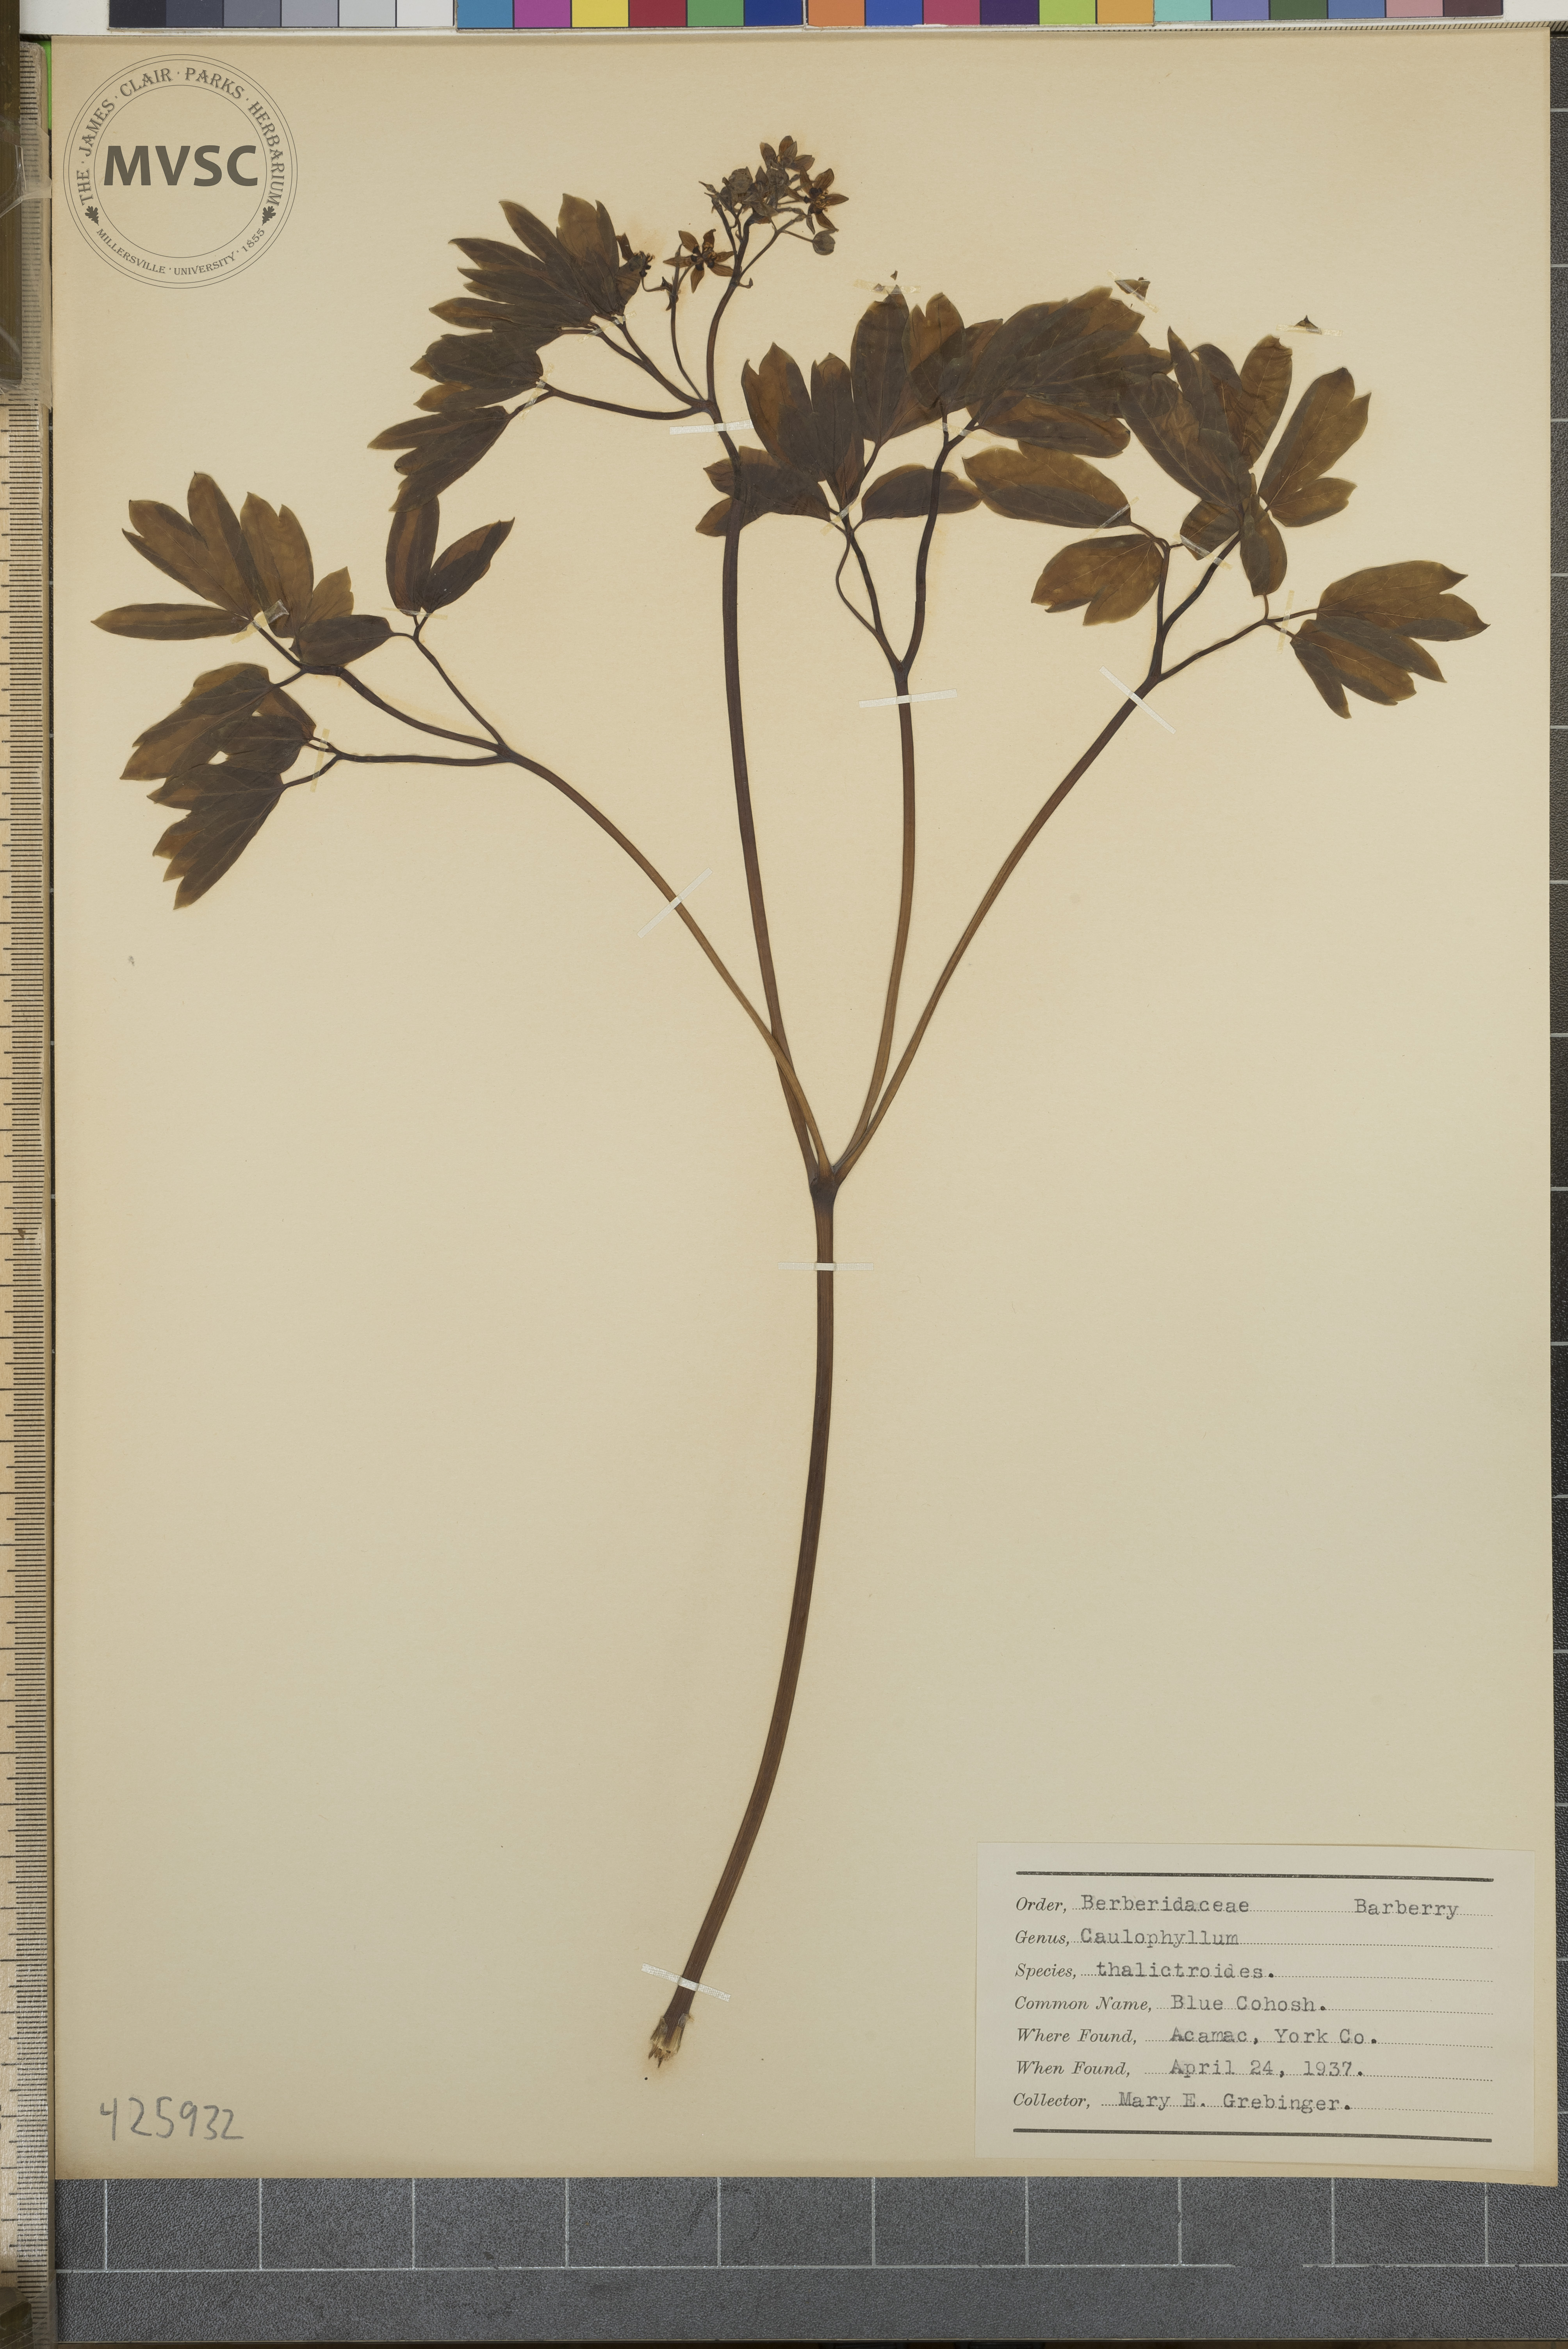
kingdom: Plantae
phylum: Tracheophyta
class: Magnoliopsida
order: Ranunculales
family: Berberidaceae
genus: Caulophyllum
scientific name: Caulophyllum thalictroides
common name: Blue cohosh
